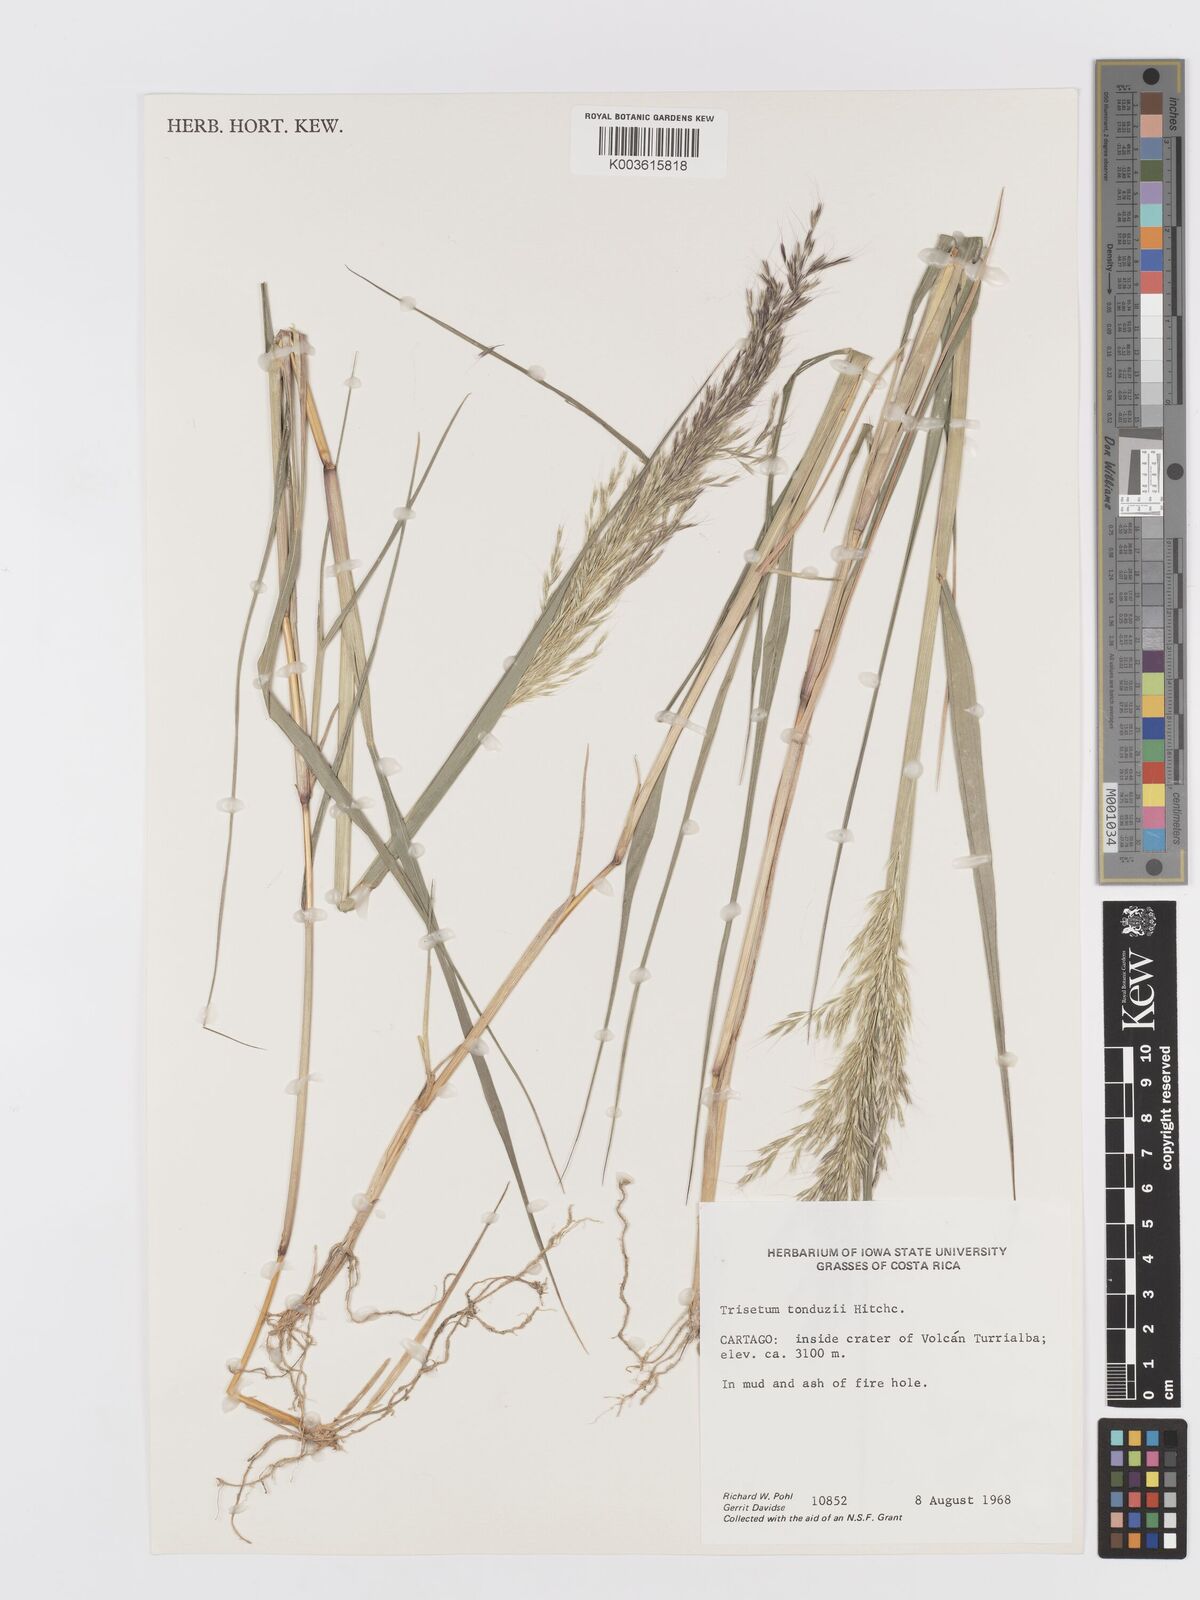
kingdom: Plantae
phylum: Tracheophyta
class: Liliopsida
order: Poales
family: Poaceae
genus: Peyritschia
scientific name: Peyritschia tonduzii
